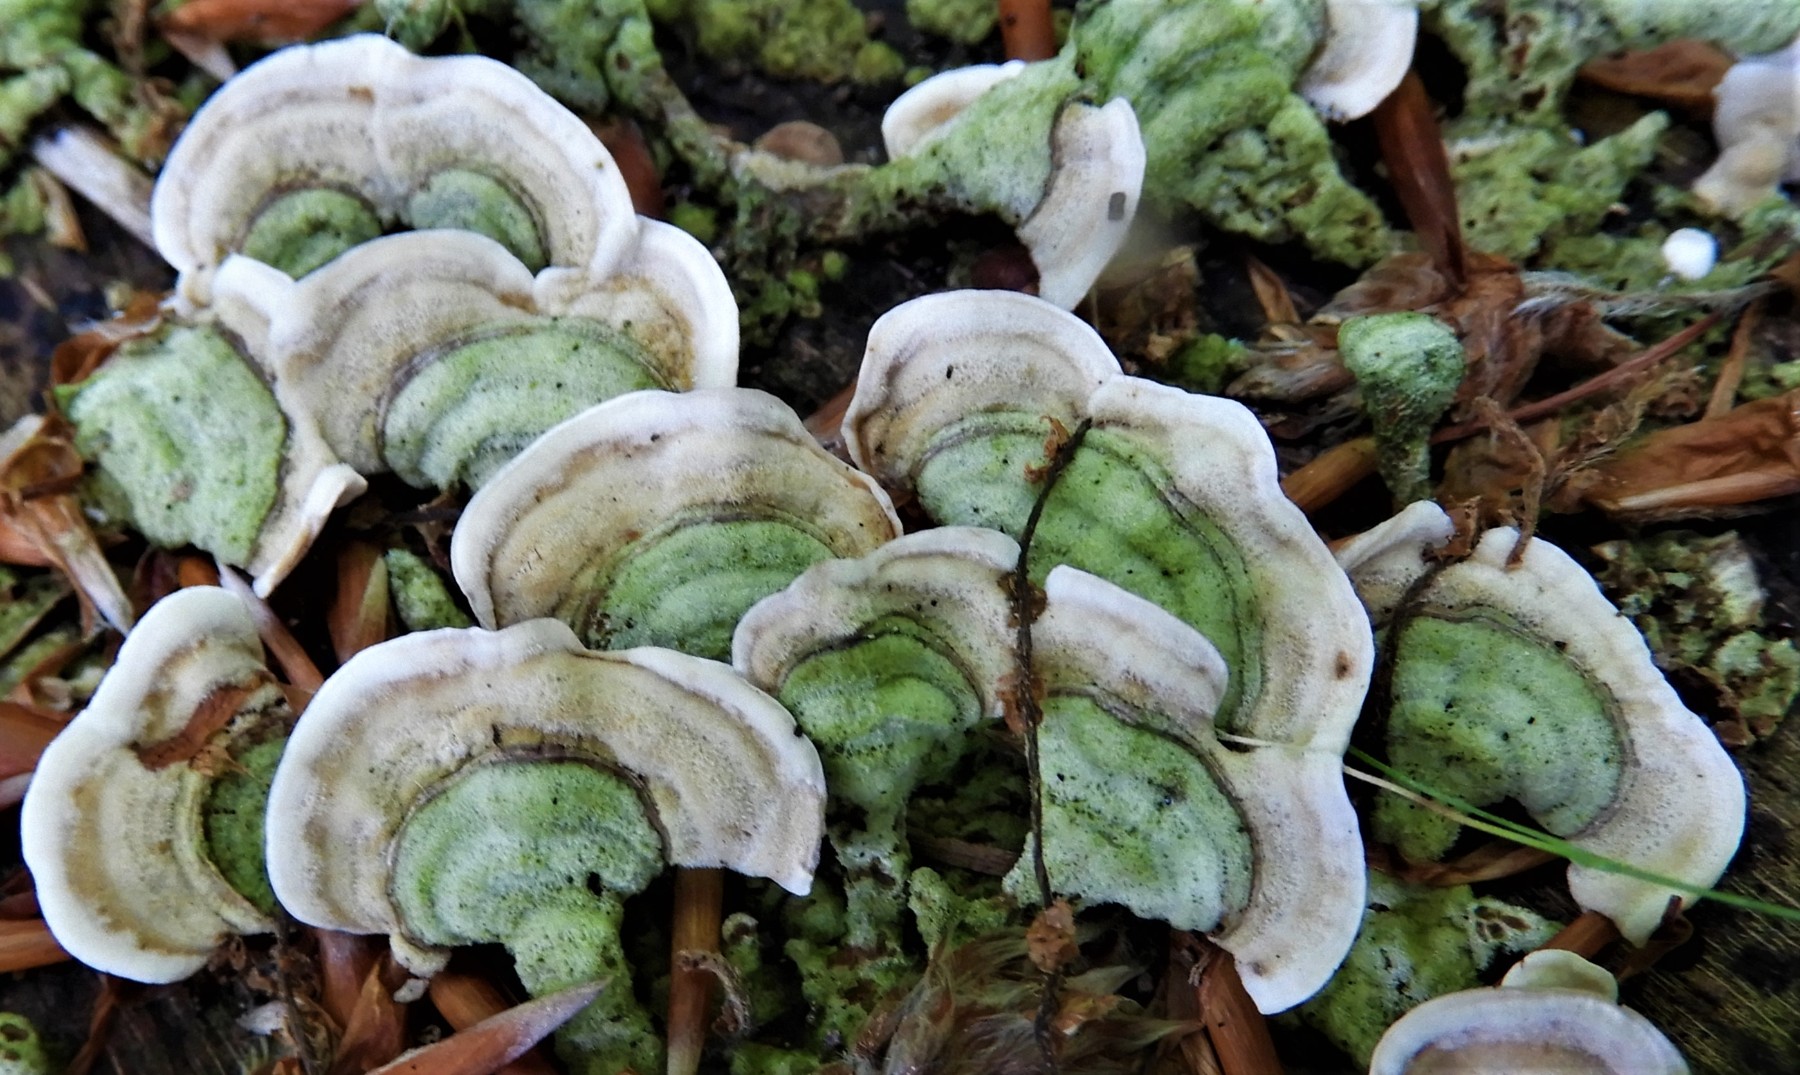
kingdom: Fungi
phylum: Basidiomycota
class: Agaricomycetes
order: Russulales
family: Stereaceae
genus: Stereum
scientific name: Stereum subtomentosum
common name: smuk lædersvamp
